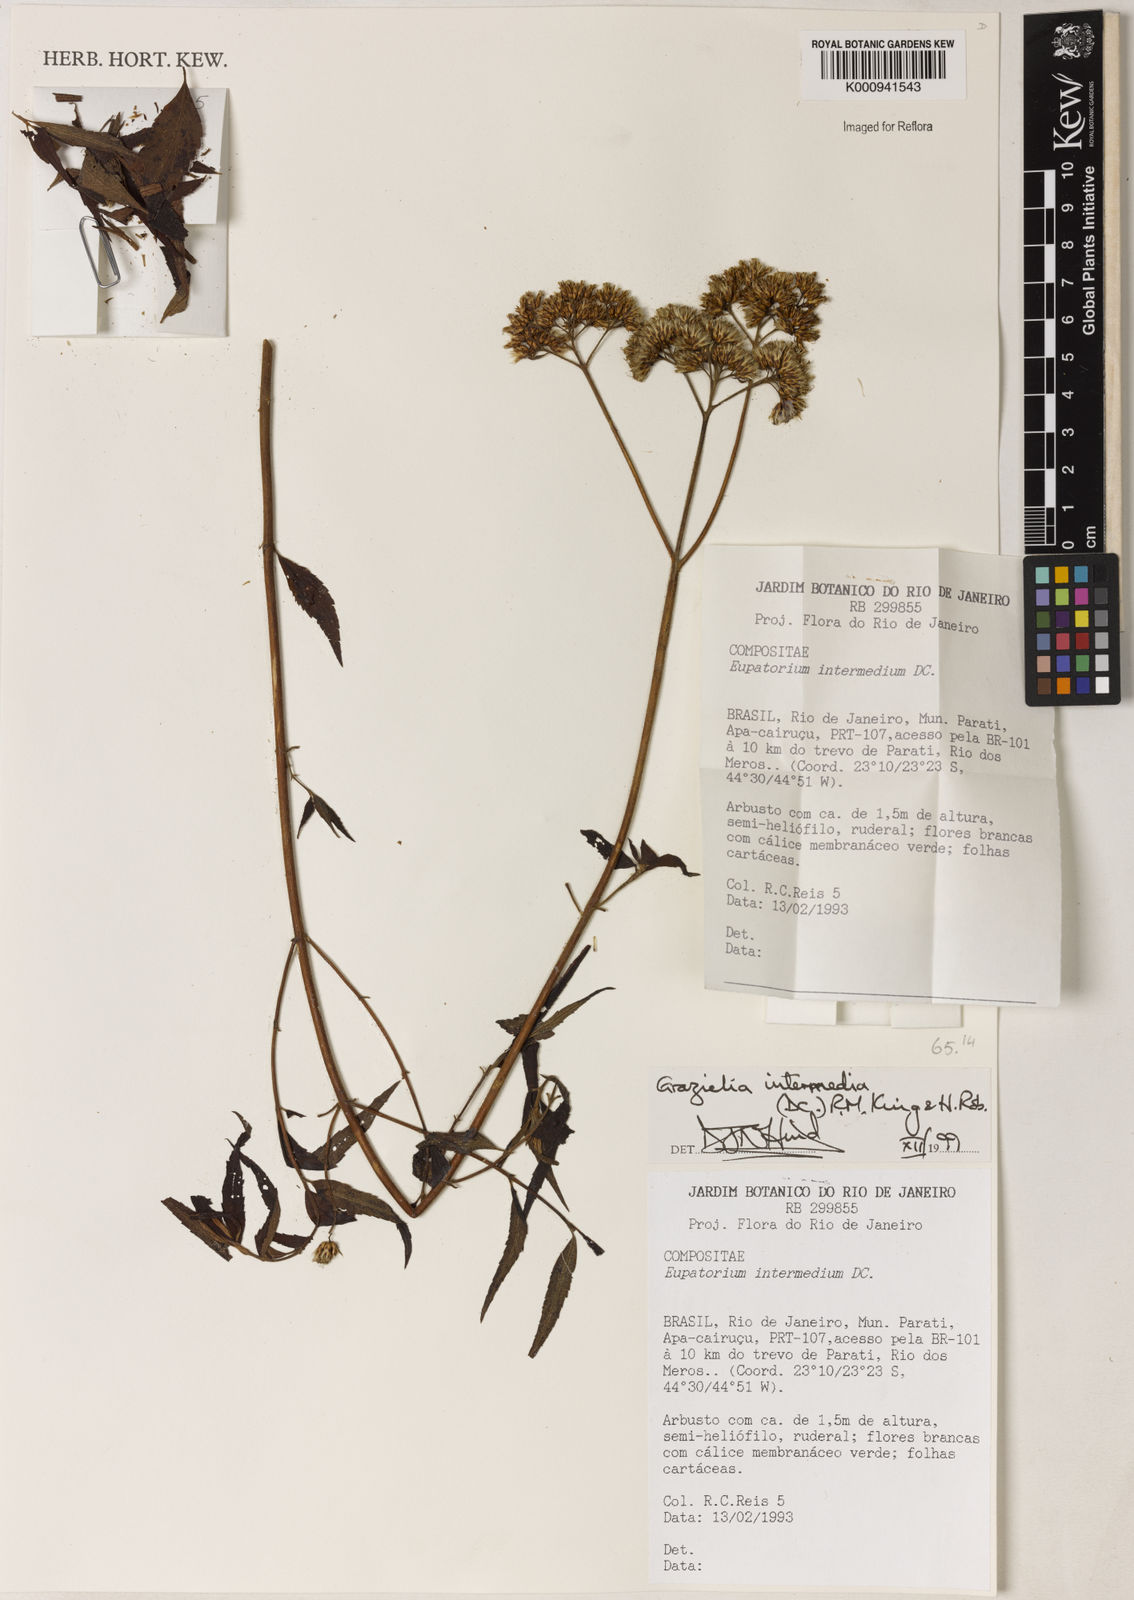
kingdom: Plantae
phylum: Tracheophyta
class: Magnoliopsida
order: Asterales
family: Asteraceae
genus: Grazielia
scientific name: Grazielia intermedia
